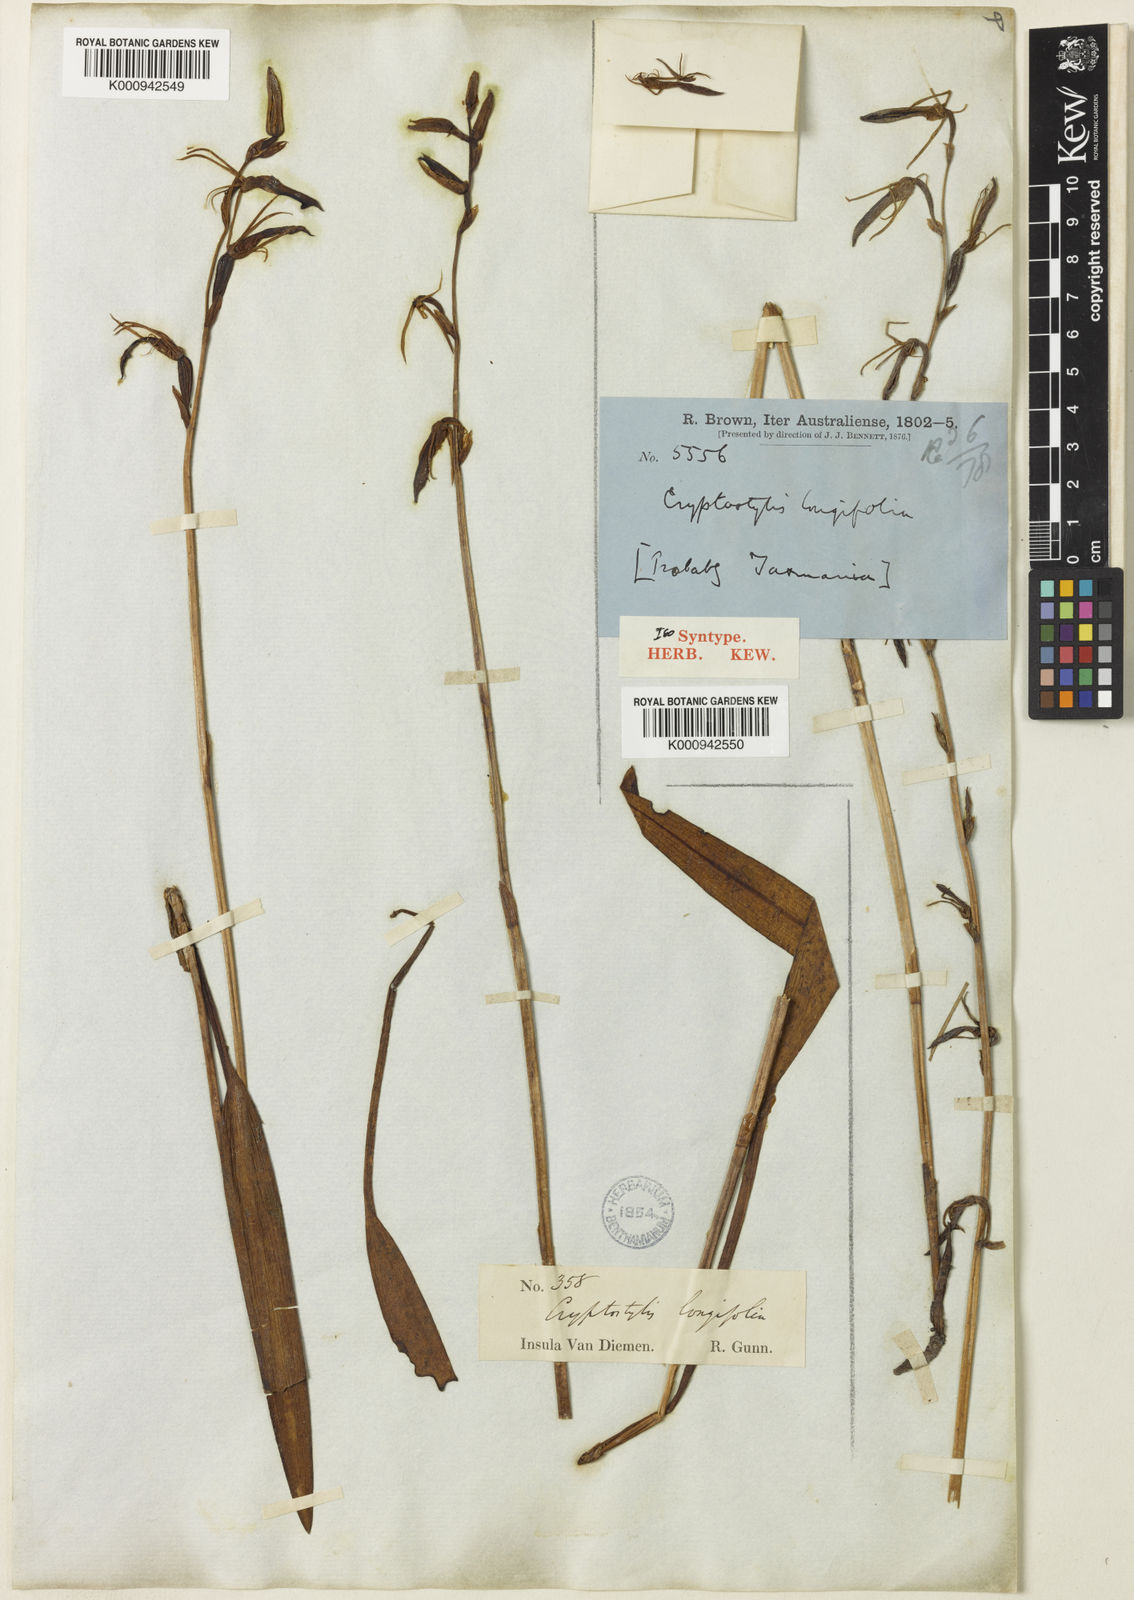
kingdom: Plantae
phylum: Tracheophyta
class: Liliopsida
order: Asparagales
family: Orchidaceae
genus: Cryptostylis
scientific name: Cryptostylis subulata
